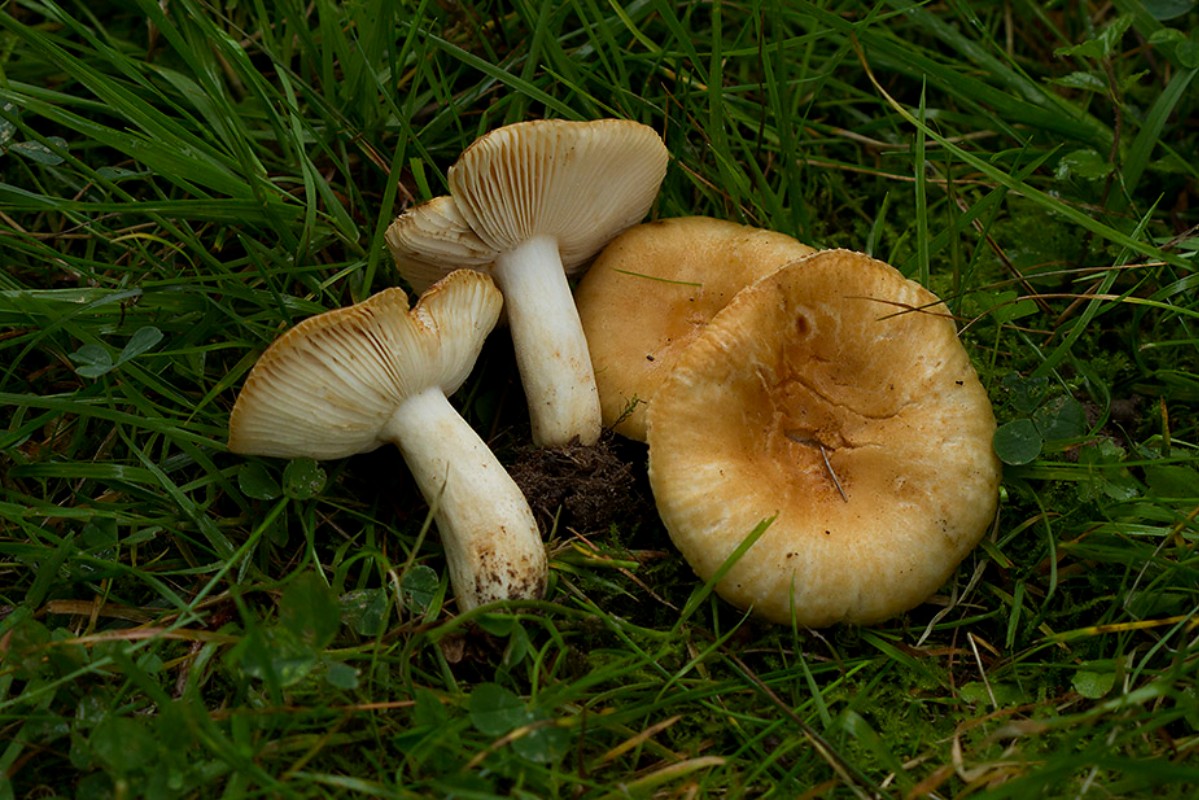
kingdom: Fungi
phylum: Basidiomycota
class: Agaricomycetes
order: Russulales
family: Russulaceae
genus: Russula
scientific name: Russula farinipes
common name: gul kam-skørhat
